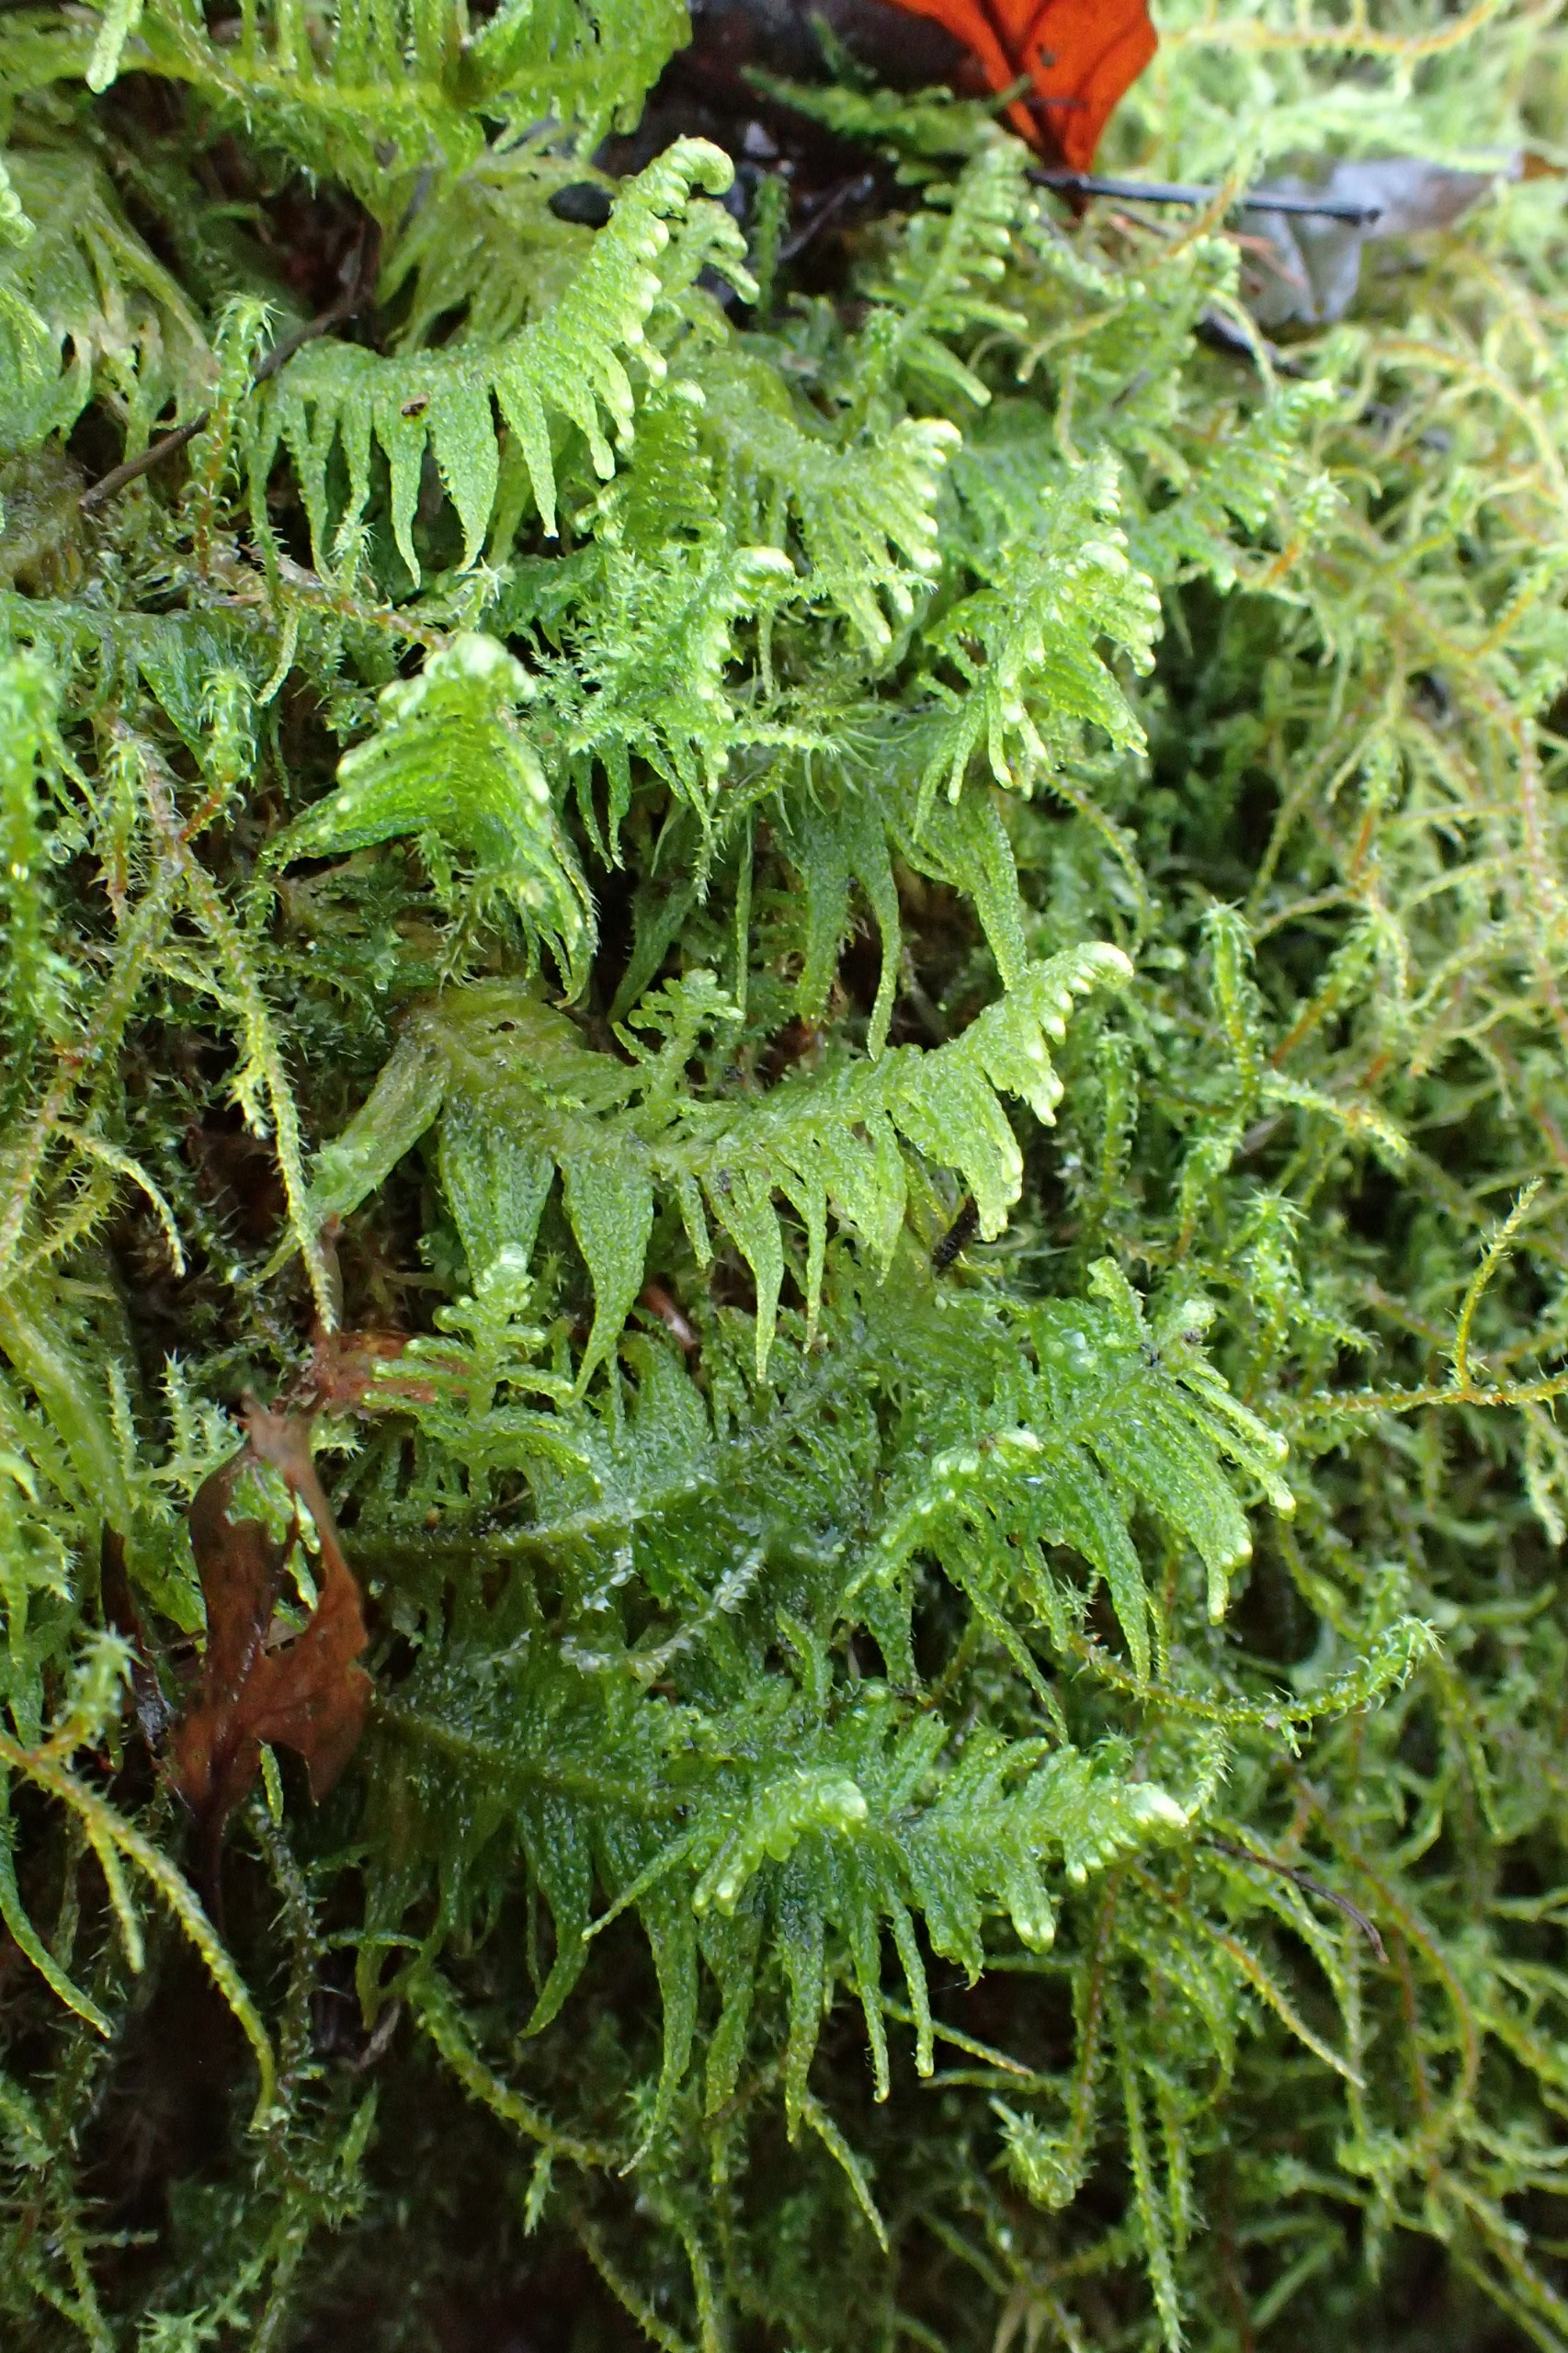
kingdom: Plantae
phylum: Bryophyta
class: Bryopsida
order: Hypnales
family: Pylaisiaceae
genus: Ptilium
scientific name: Ptilium crista-castrensis
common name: Fjer-kammos
